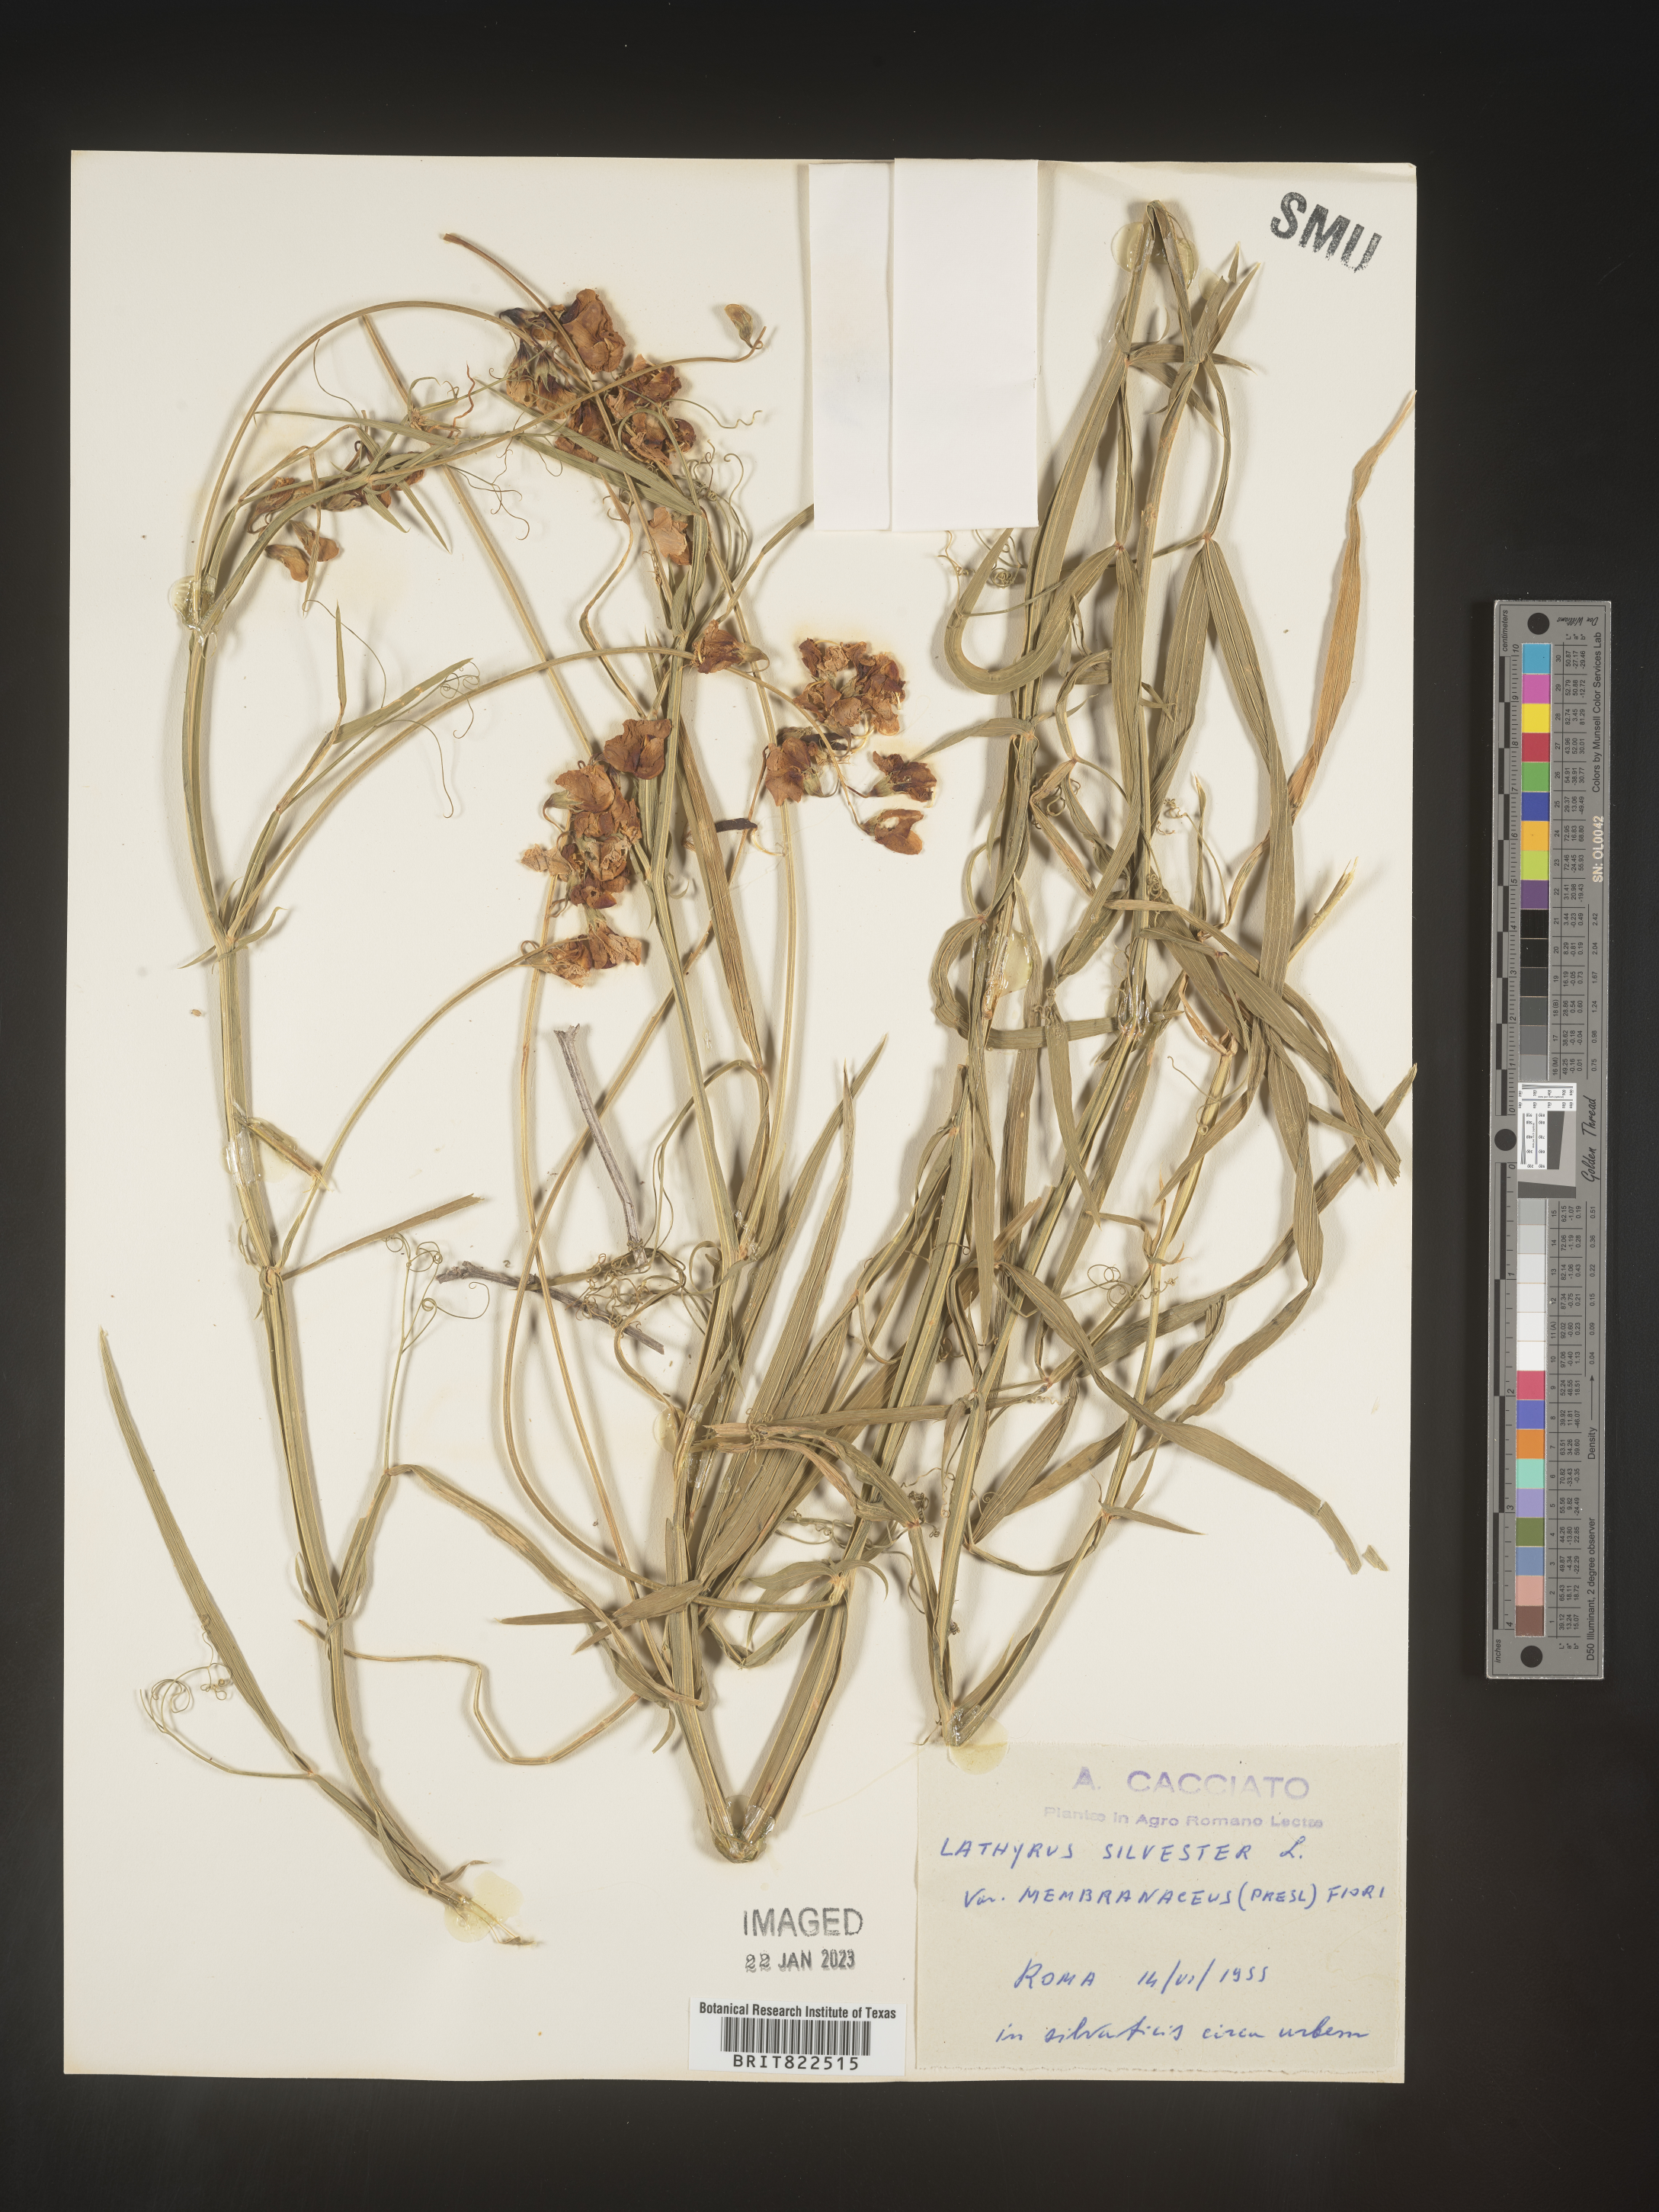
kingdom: Plantae
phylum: Tracheophyta
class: Magnoliopsida
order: Fabales
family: Fabaceae
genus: Lathyrus
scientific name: Lathyrus
